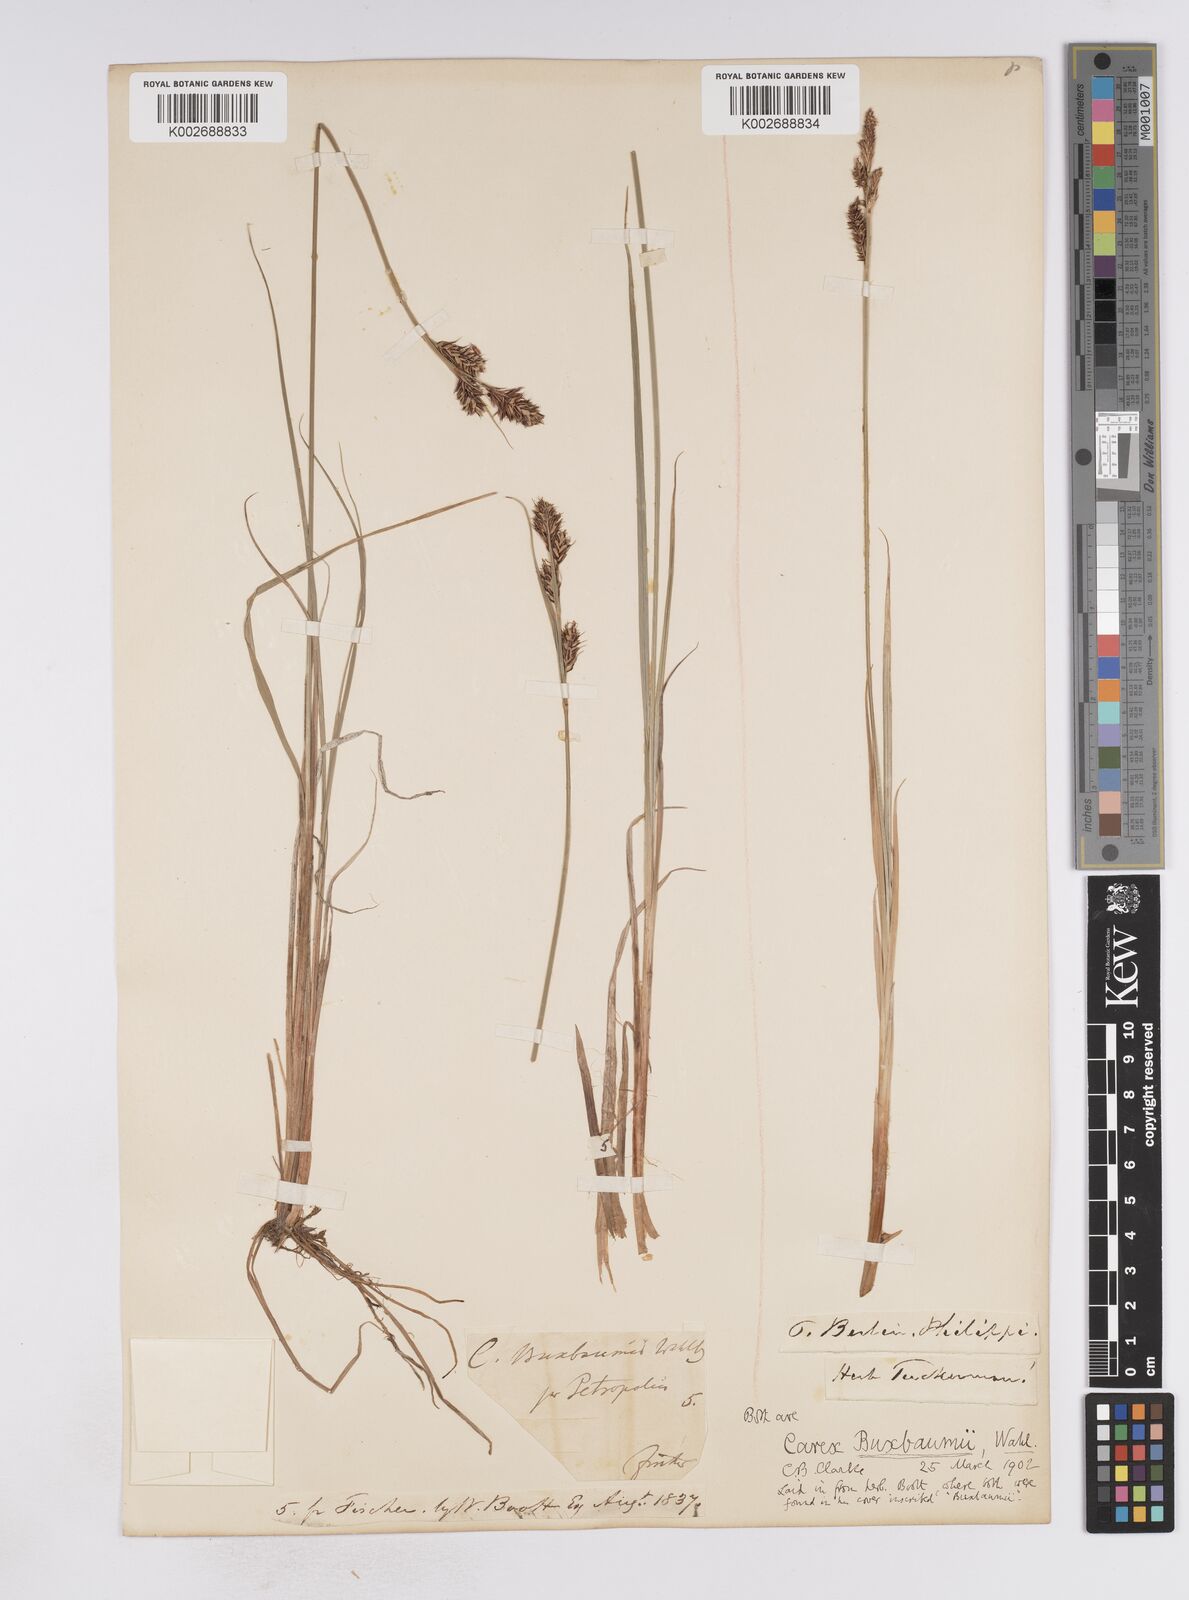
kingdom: Plantae
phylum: Tracheophyta
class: Liliopsida
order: Poales
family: Cyperaceae
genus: Carex
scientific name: Carex buxbaumii
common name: Club sedge
